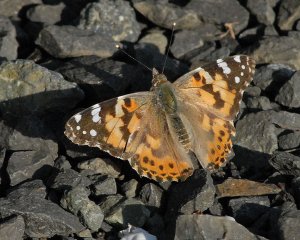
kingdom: Animalia
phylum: Arthropoda
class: Insecta
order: Lepidoptera
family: Nymphalidae
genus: Vanessa
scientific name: Vanessa cardui
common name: Painted Lady
